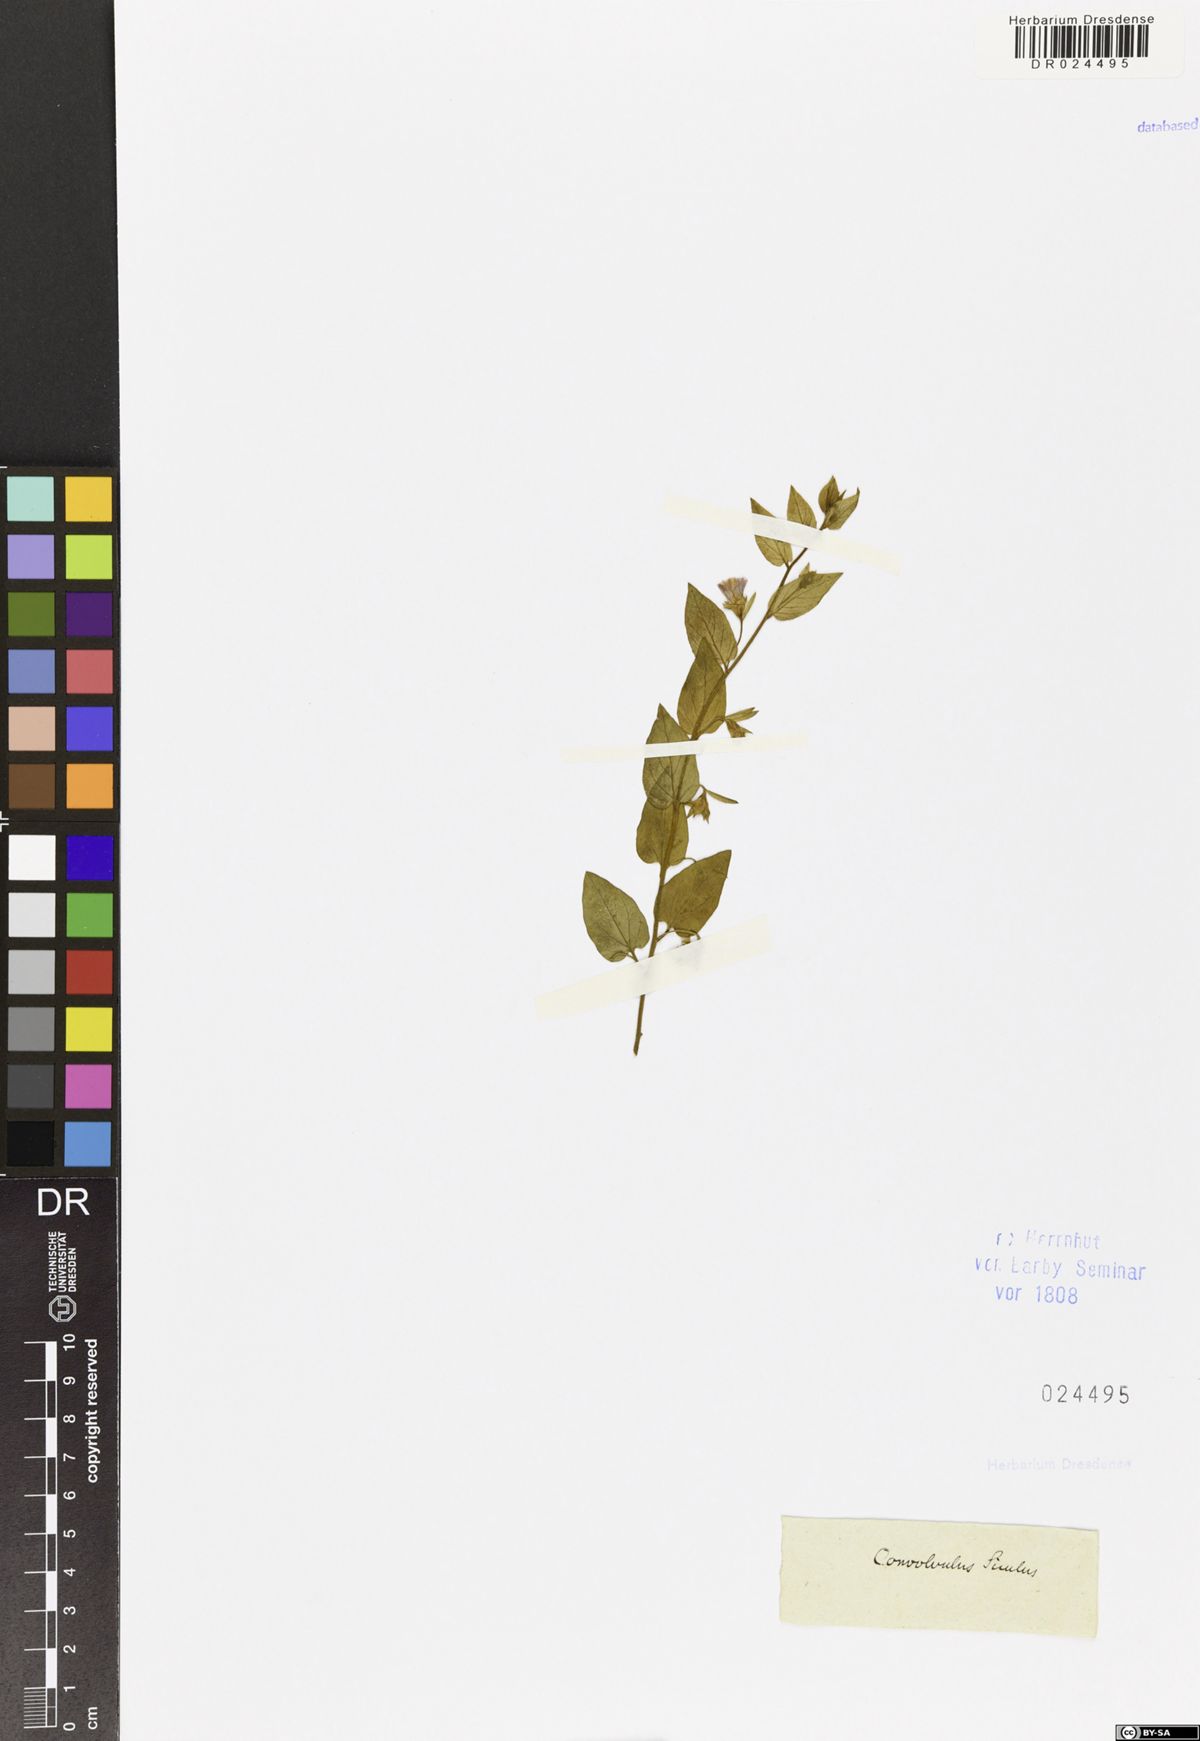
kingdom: Plantae
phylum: Tracheophyta
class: Magnoliopsida
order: Solanales
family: Convolvulaceae
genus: Convolvulus
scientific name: Convolvulus siculus
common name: Small blue-convolvulus
